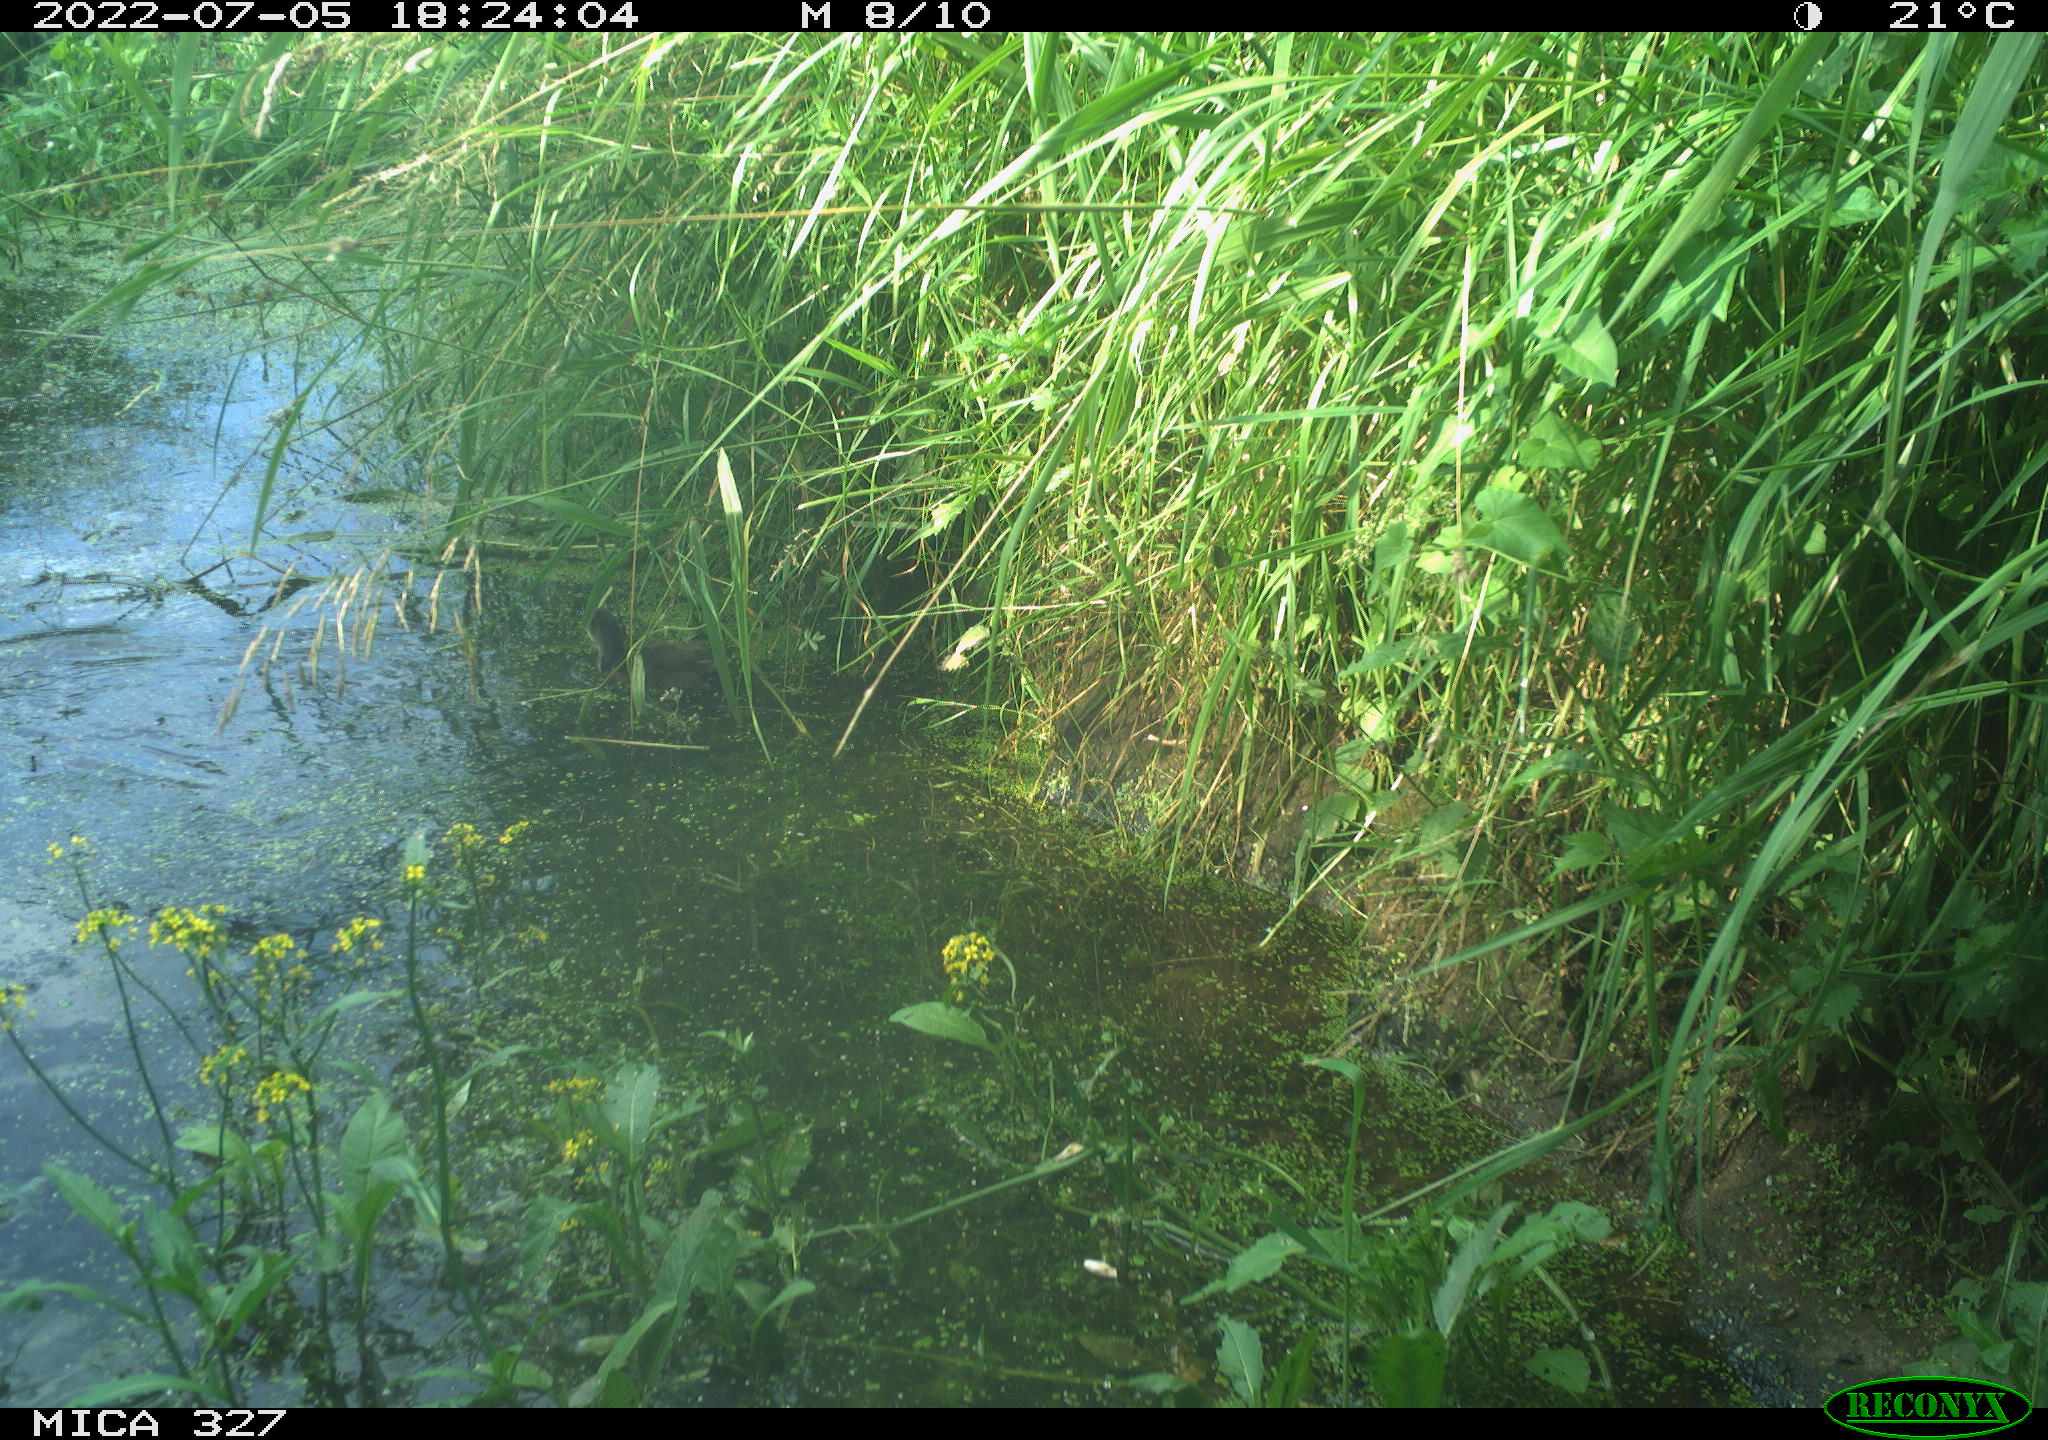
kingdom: Animalia
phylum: Chordata
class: Aves
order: Gruiformes
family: Rallidae
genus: Gallinula
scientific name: Gallinula chloropus
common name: Common moorhen
